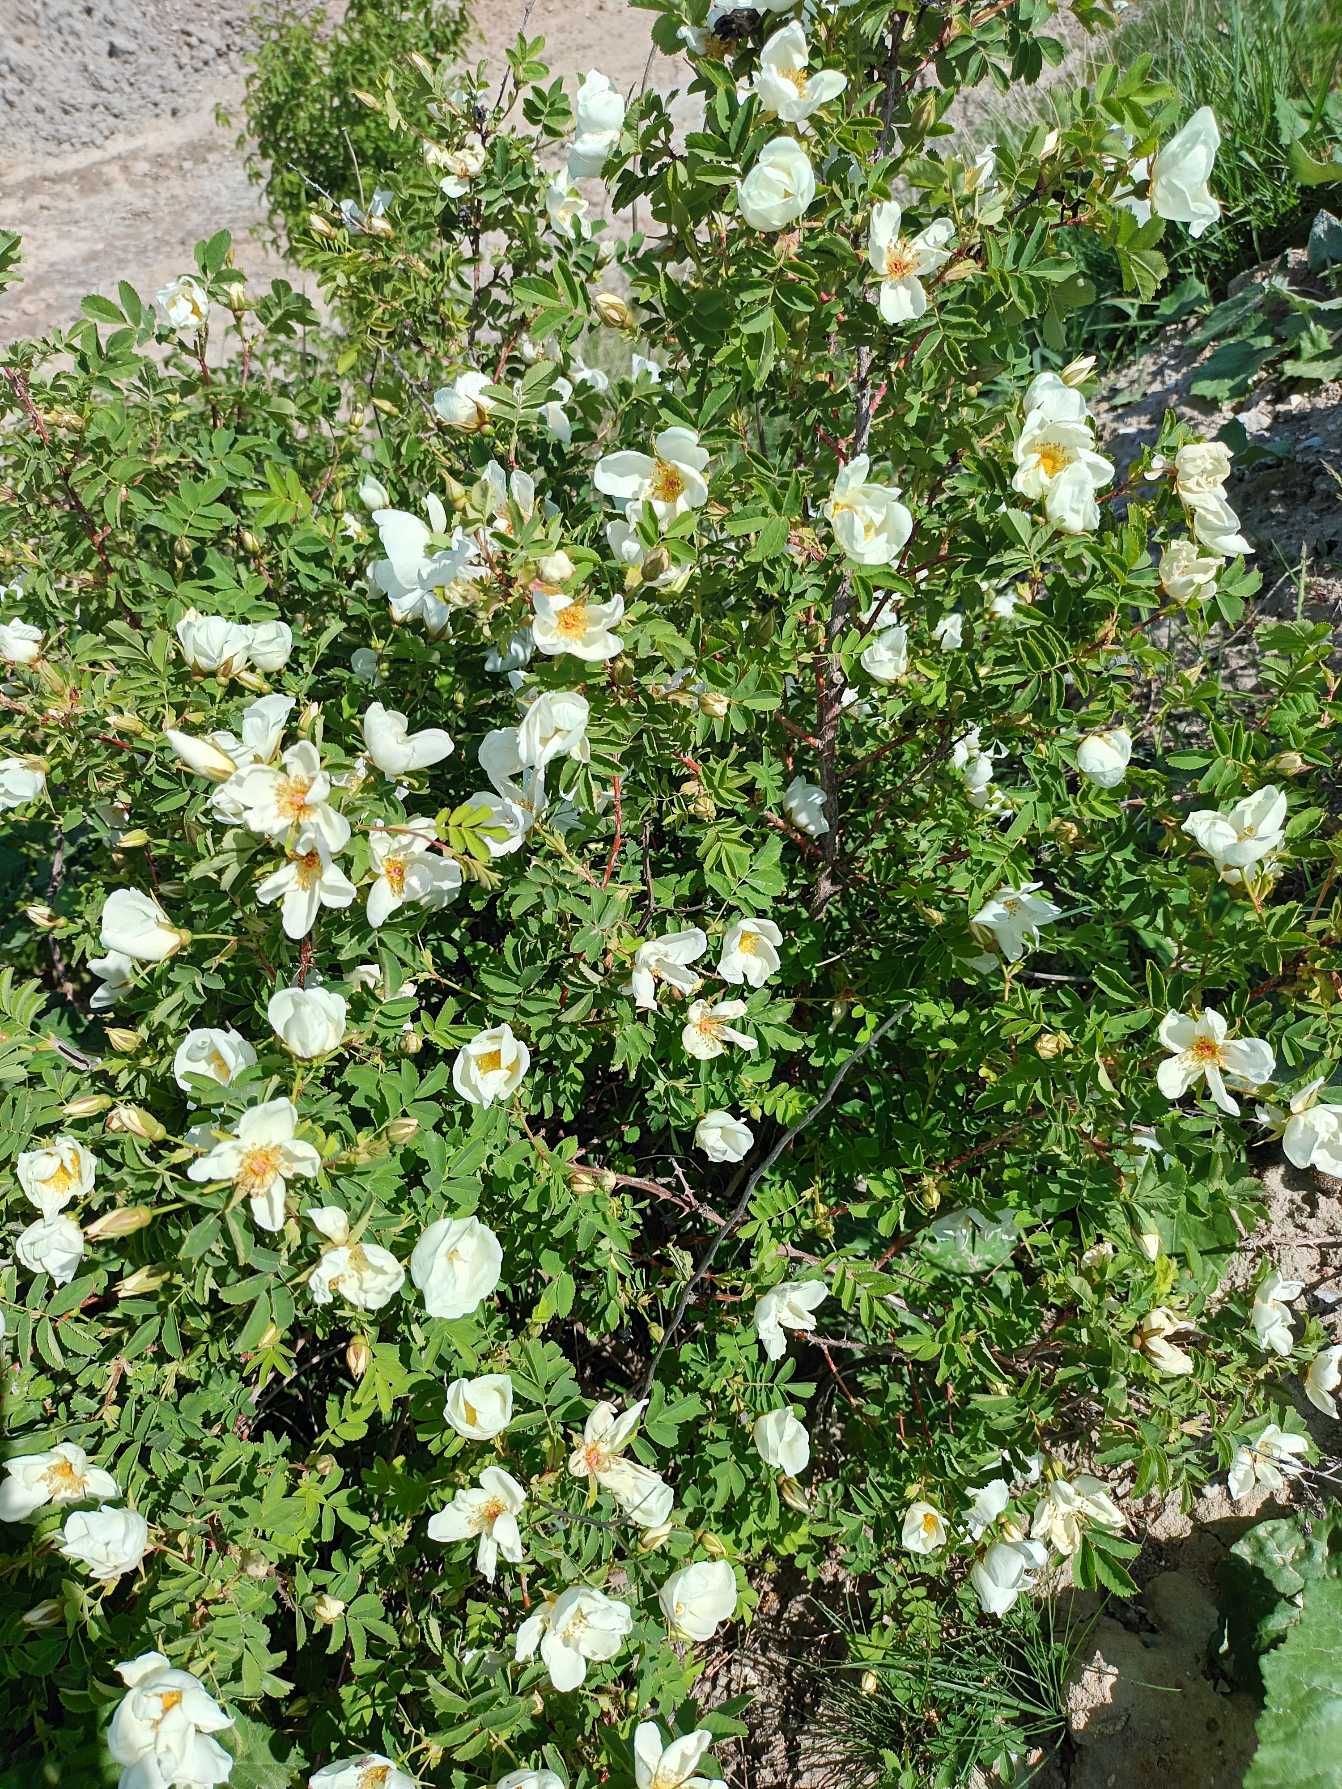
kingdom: Plantae
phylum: Tracheophyta
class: Magnoliopsida
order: Rosales
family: Rosaceae
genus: Rosa
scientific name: Rosa spinosissima
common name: Klit-rose
